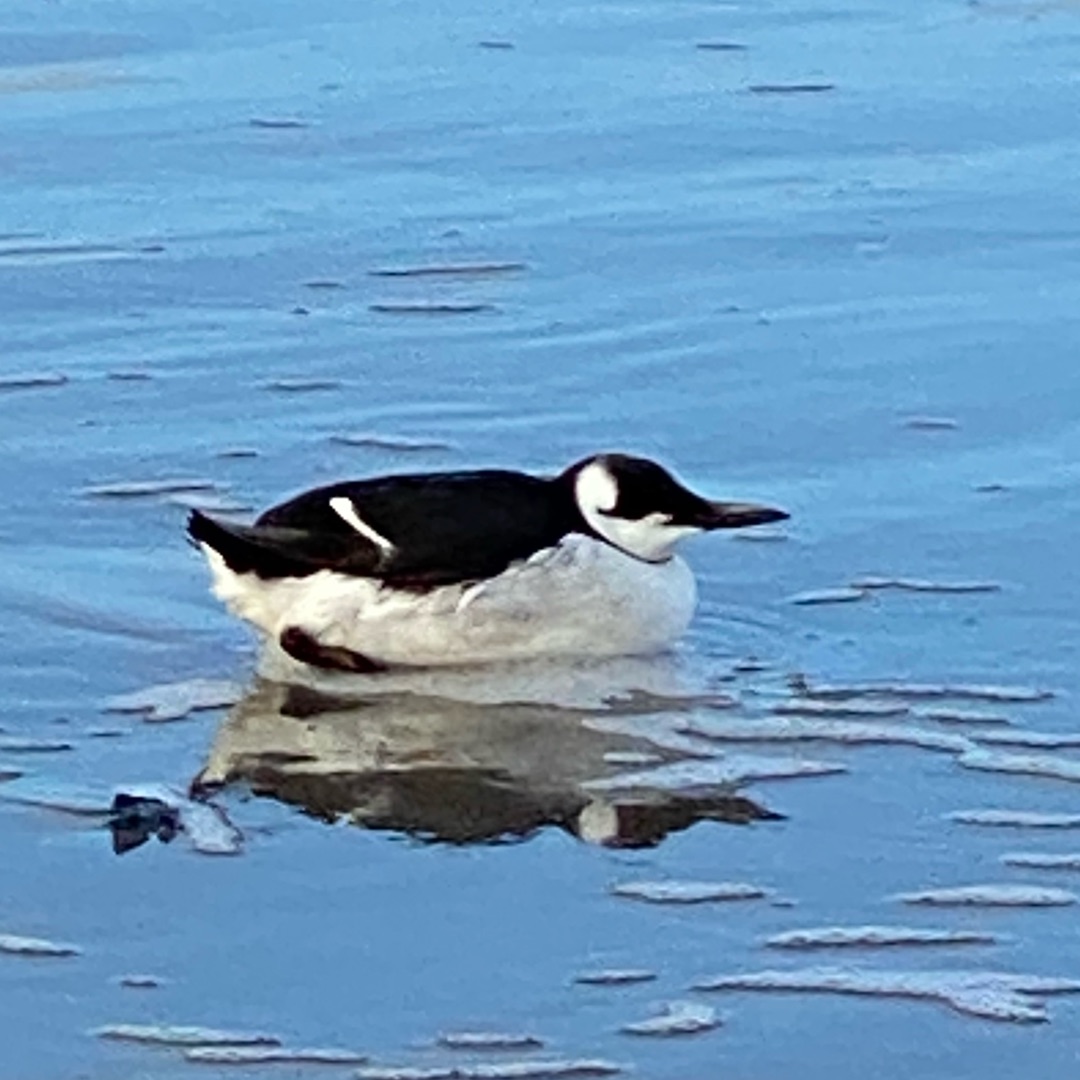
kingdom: Animalia
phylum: Chordata
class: Aves
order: Charadriiformes
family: Alcidae
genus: Uria
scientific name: Uria aalge
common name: Lomvie
